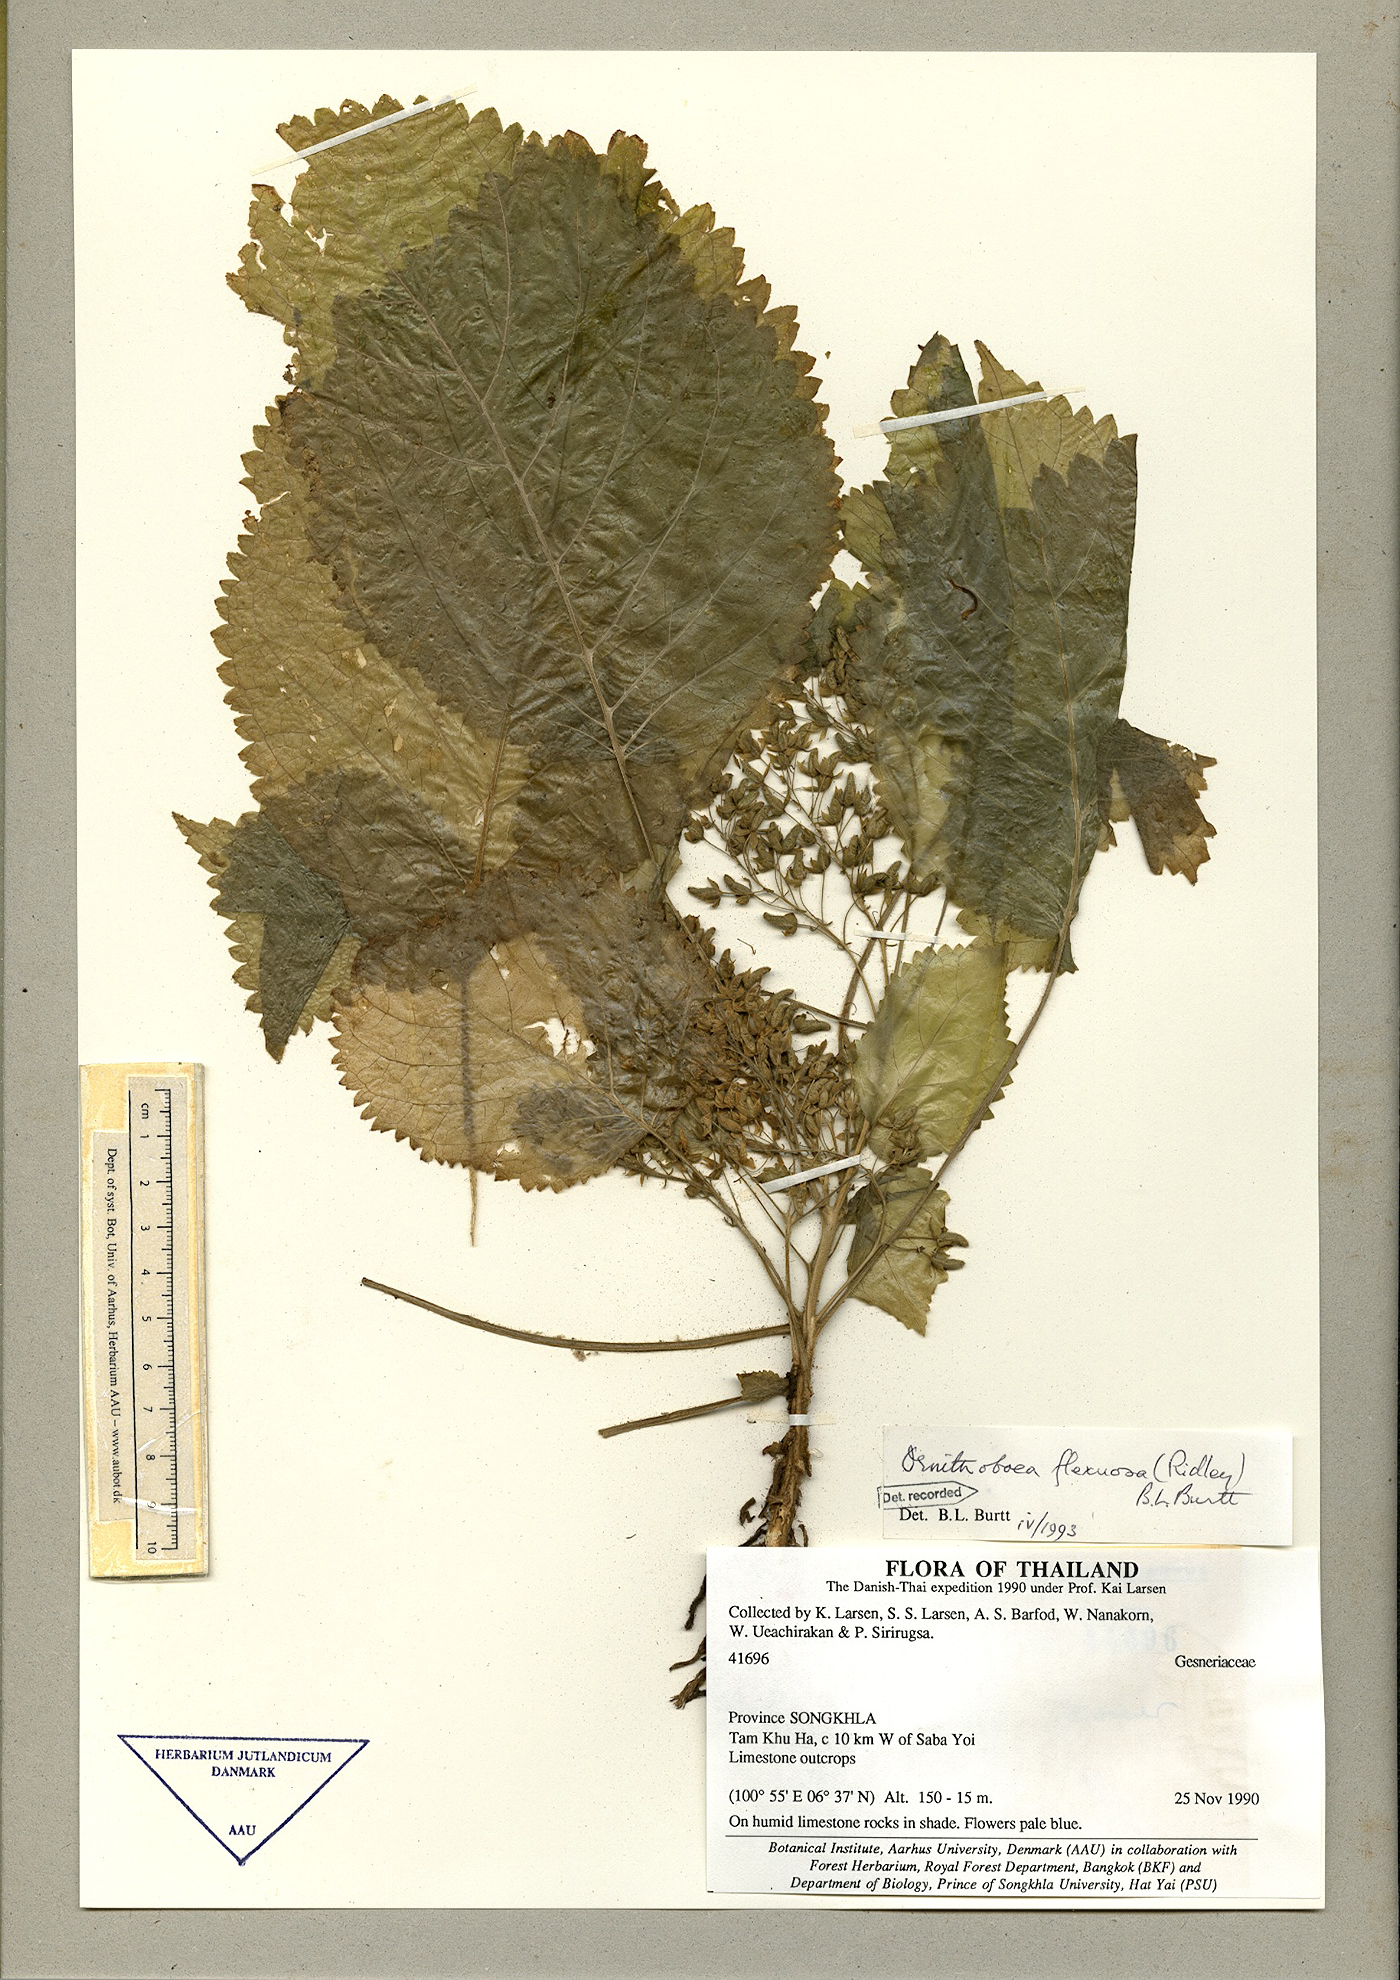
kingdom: Plantae
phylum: Tracheophyta
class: Magnoliopsida
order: Lamiales
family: Gesneriaceae
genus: Ornithoboea
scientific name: Ornithoboea flexuosa
